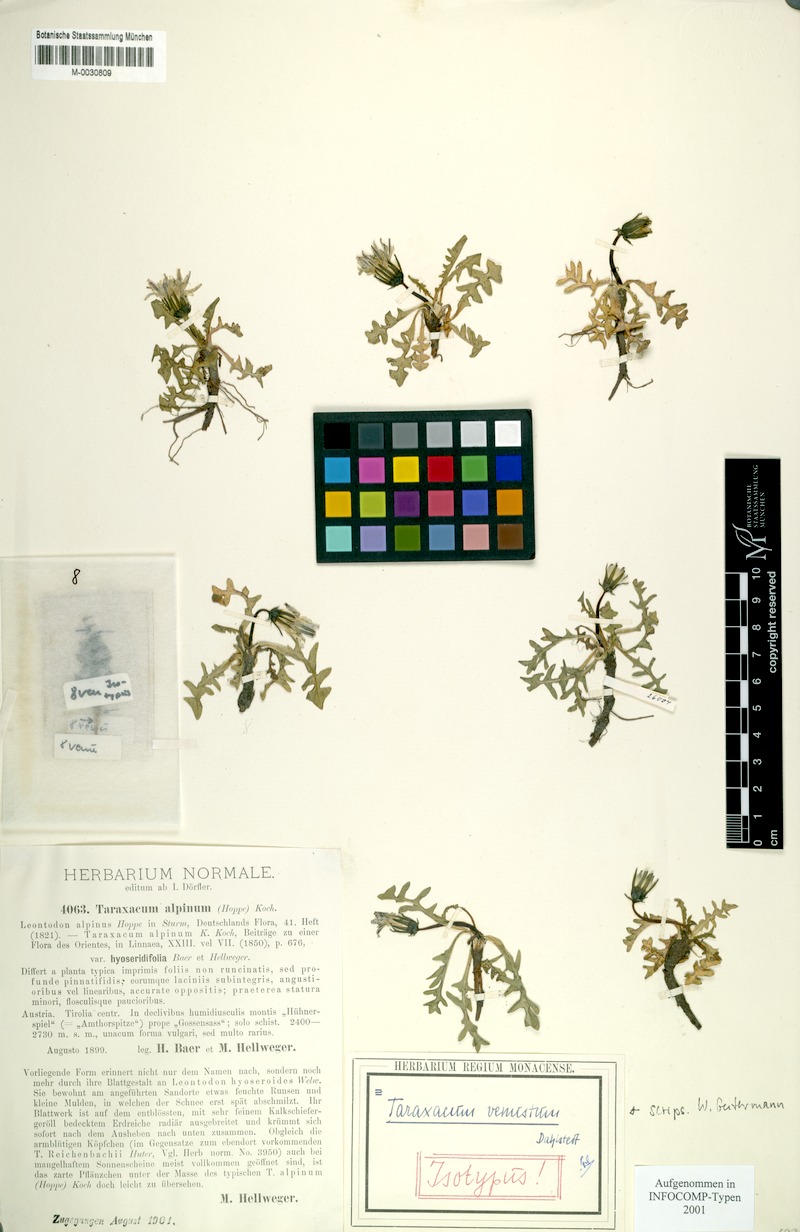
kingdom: Plantae
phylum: Tracheophyta
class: Magnoliopsida
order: Asterales
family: Asteraceae
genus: Taraxacum
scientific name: Taraxacum venustum
